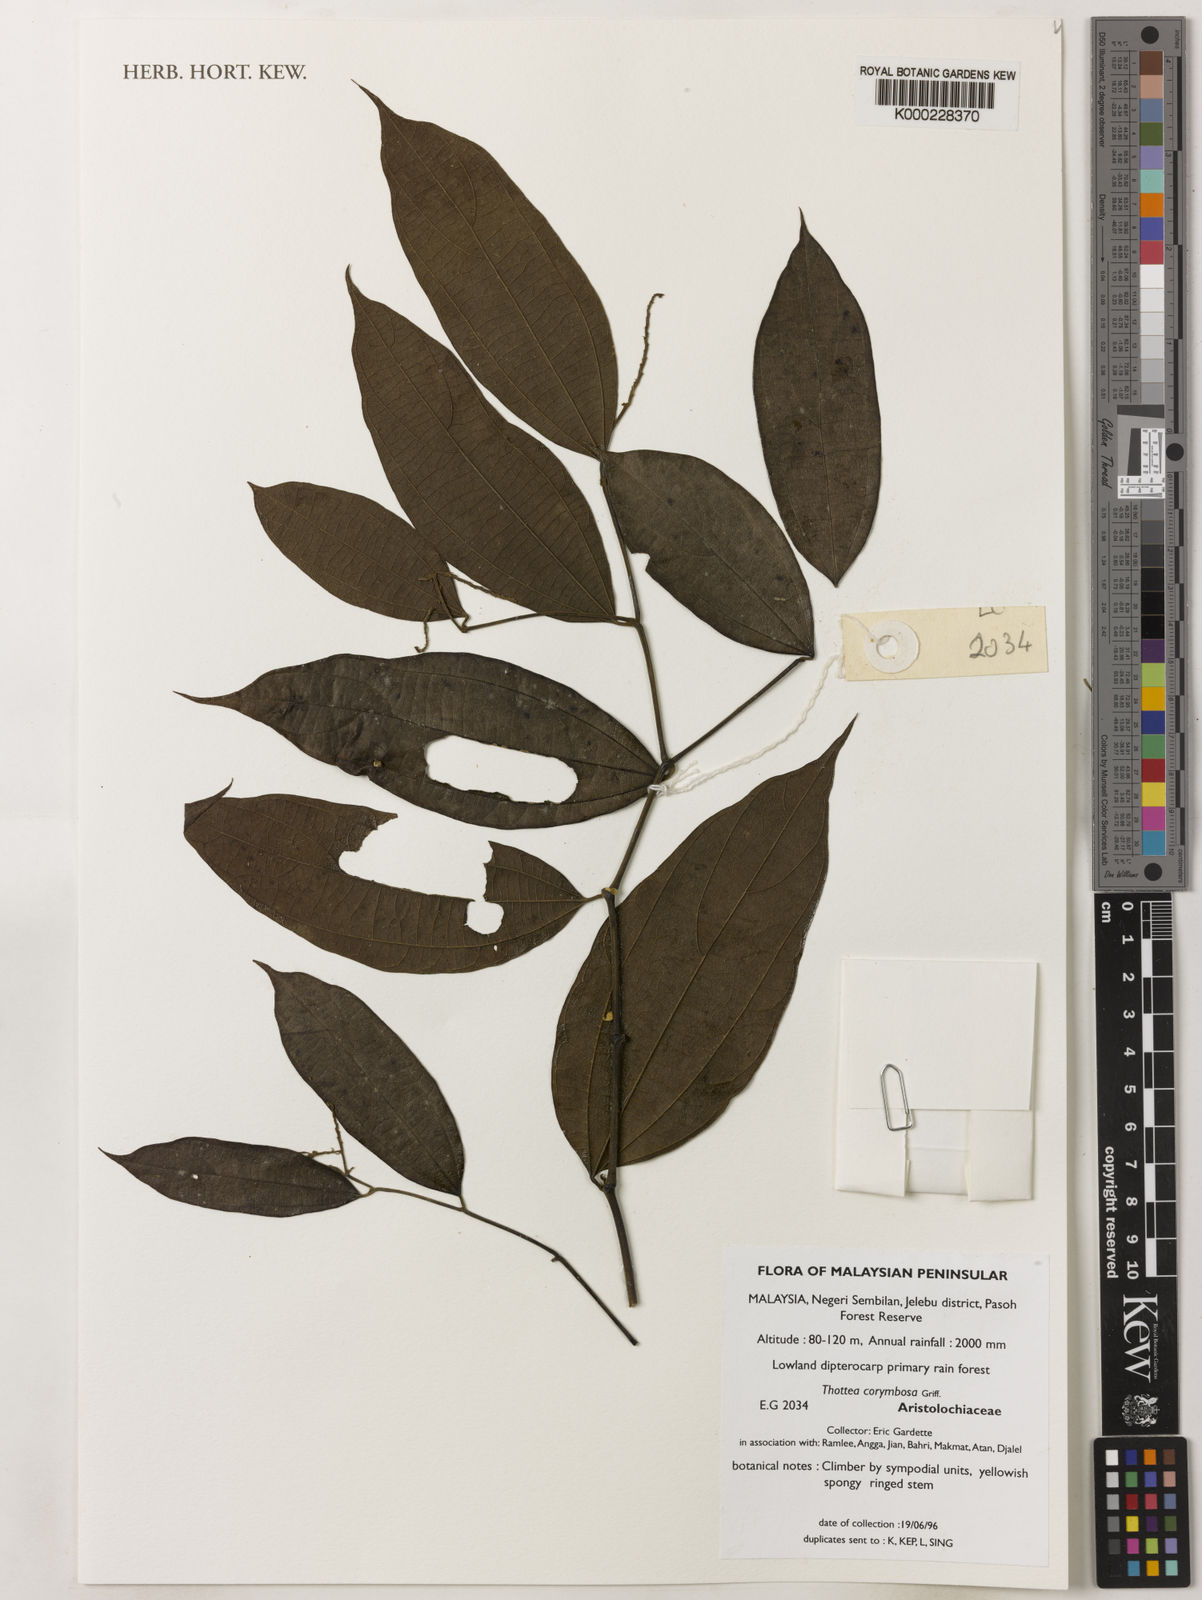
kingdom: Plantae
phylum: Tracheophyta
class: Magnoliopsida
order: Piperales
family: Aristolochiaceae
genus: Thottea
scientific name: Thottea
